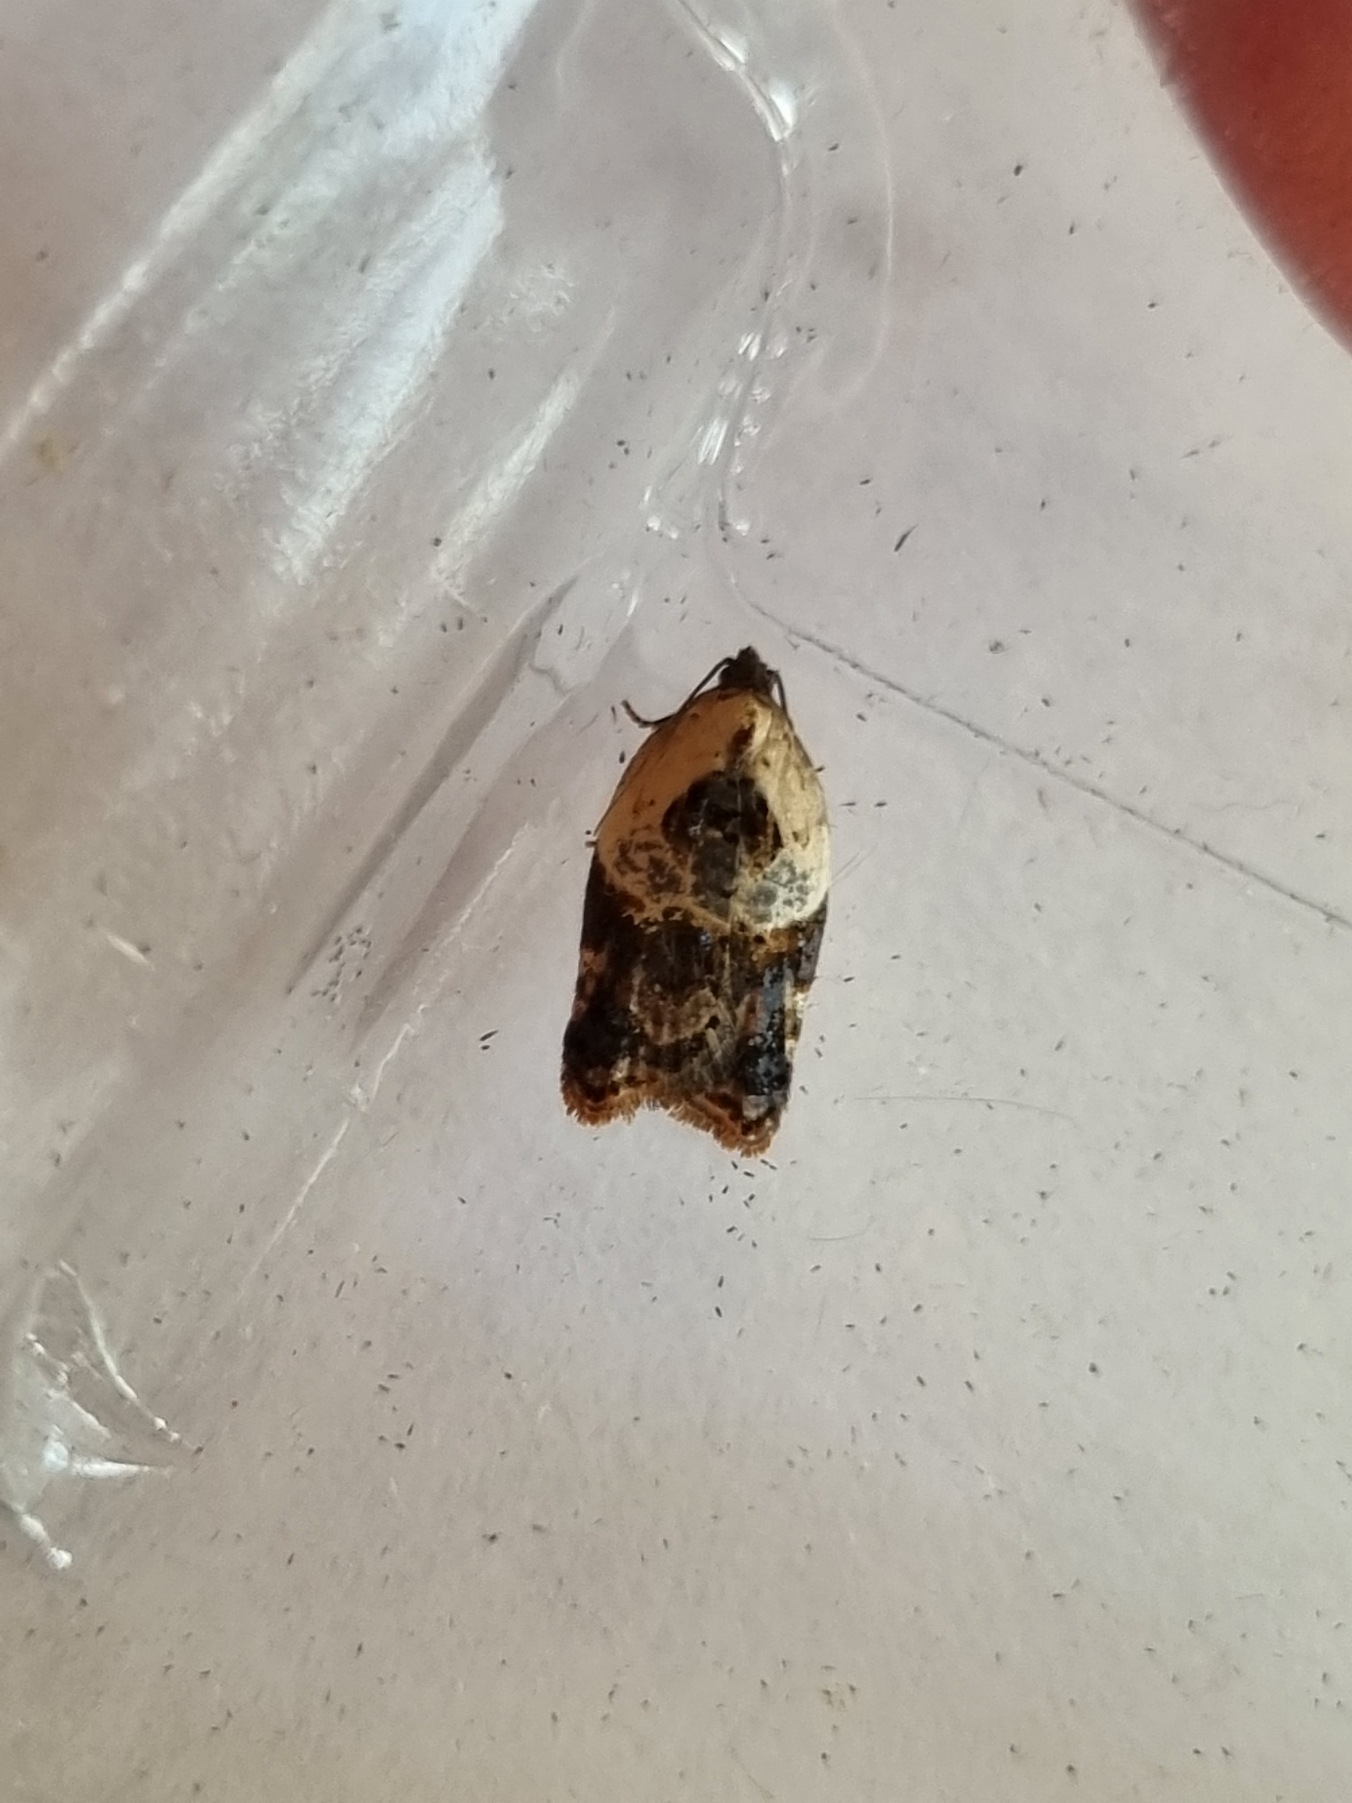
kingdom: Animalia
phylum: Arthropoda
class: Insecta
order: Lepidoptera
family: Tortricidae
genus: Acleris
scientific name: Acleris variegana
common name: Hvidbroget rosenvikler
